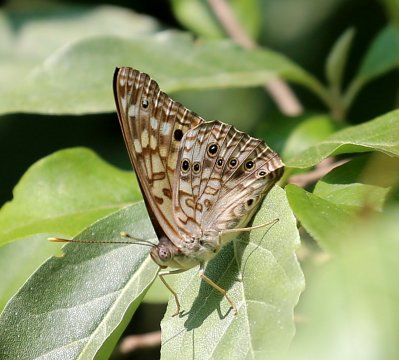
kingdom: Animalia
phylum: Arthropoda
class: Insecta
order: Lepidoptera
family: Nymphalidae
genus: Asterocampa
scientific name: Asterocampa celtis
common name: Hackberry Emperor
